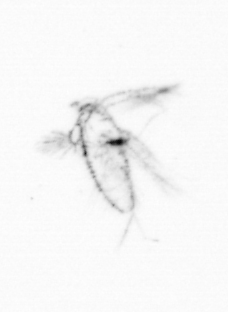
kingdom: Chromista
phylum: Ochrophyta
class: Bacillariophyceae
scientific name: Bacillariophyceae
